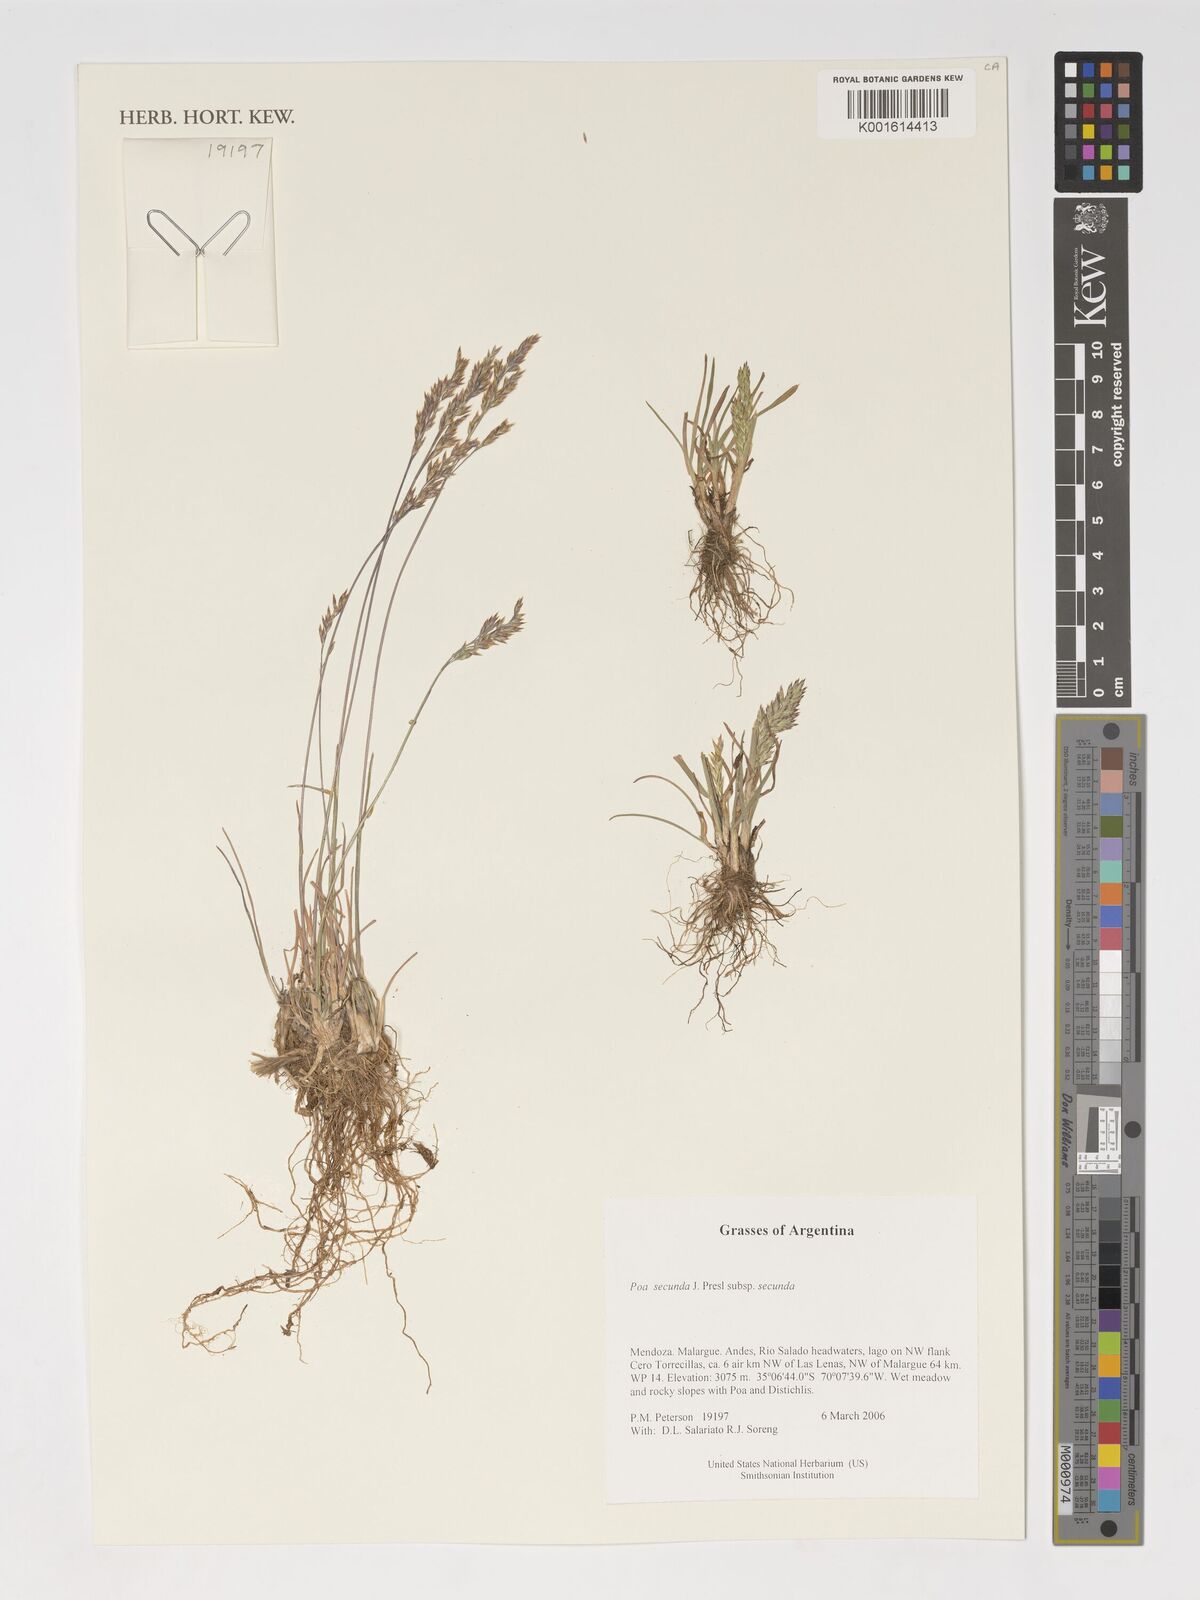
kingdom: Plantae
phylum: Tracheophyta
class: Liliopsida
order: Poales
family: Poaceae
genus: Poa
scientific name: Poa secunda
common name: Sandberg bluegrass
